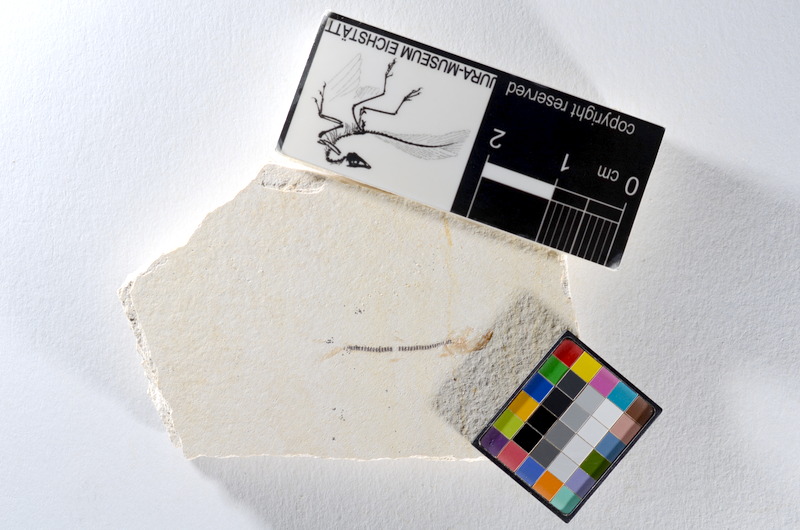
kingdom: Animalia
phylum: Chordata
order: Salmoniformes
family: Orthogonikleithridae
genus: Orthogonikleithrus
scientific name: Orthogonikleithrus hoelli
